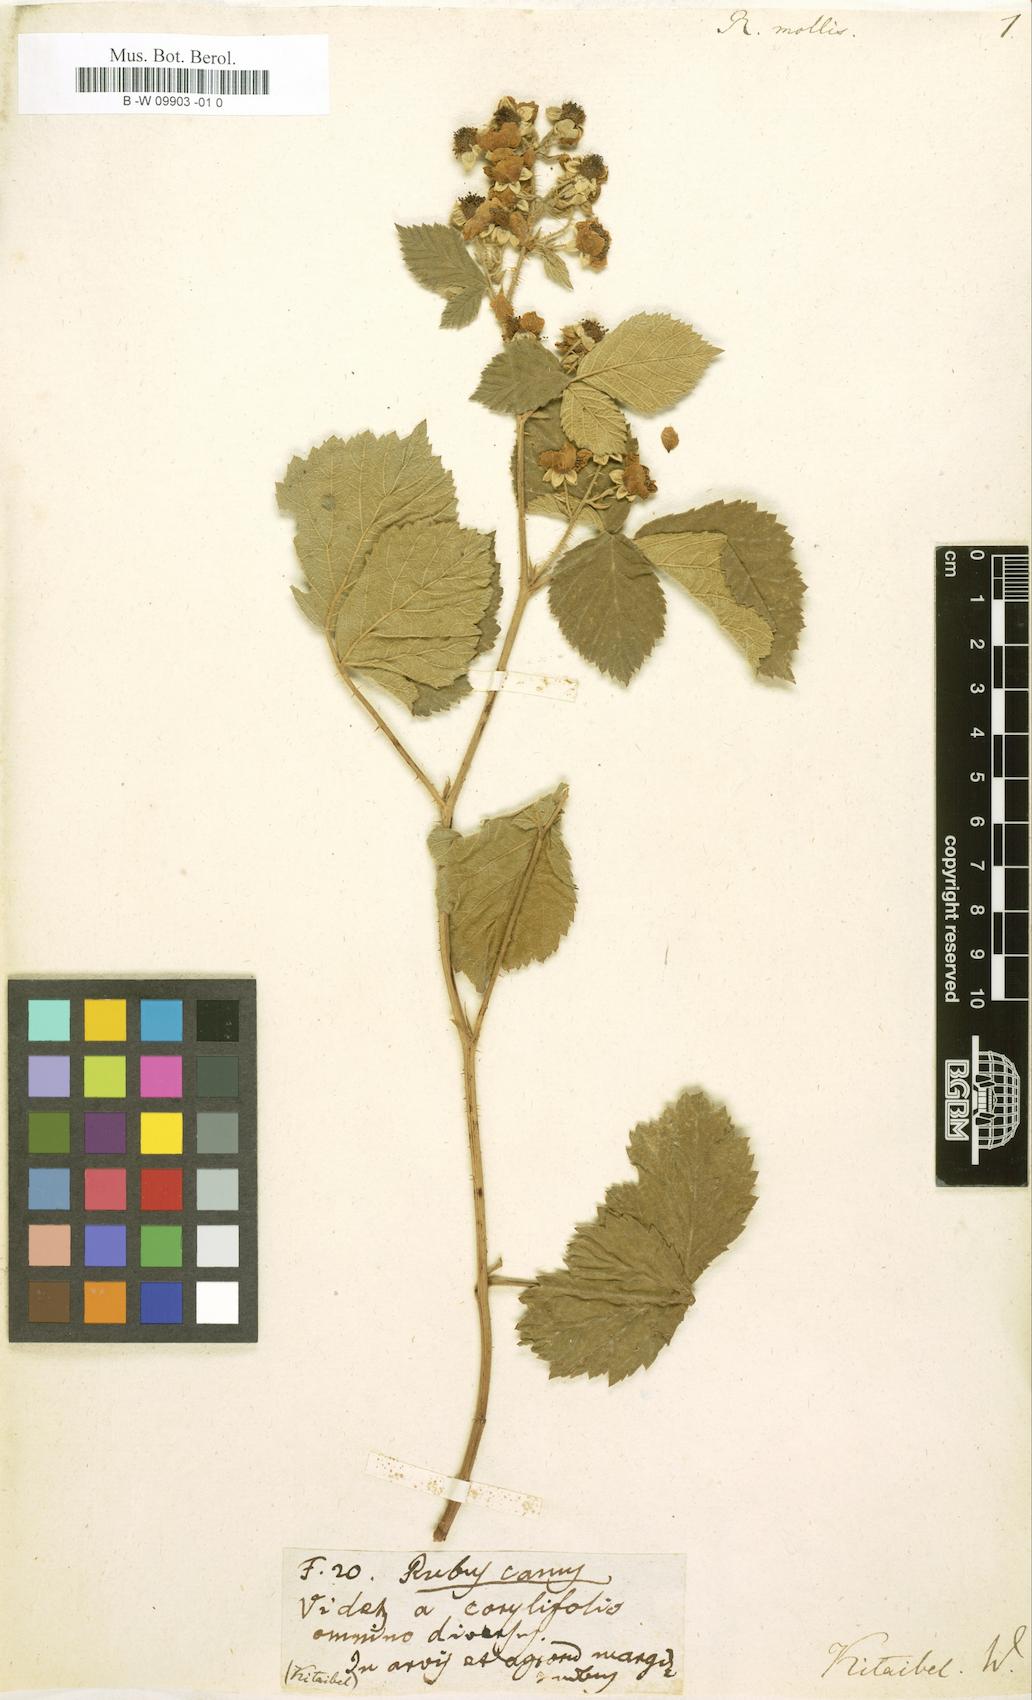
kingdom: Plantae
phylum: Tracheophyta
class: Magnoliopsida
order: Rosales
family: Rosaceae
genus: Rubus
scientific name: Rubus mollis
